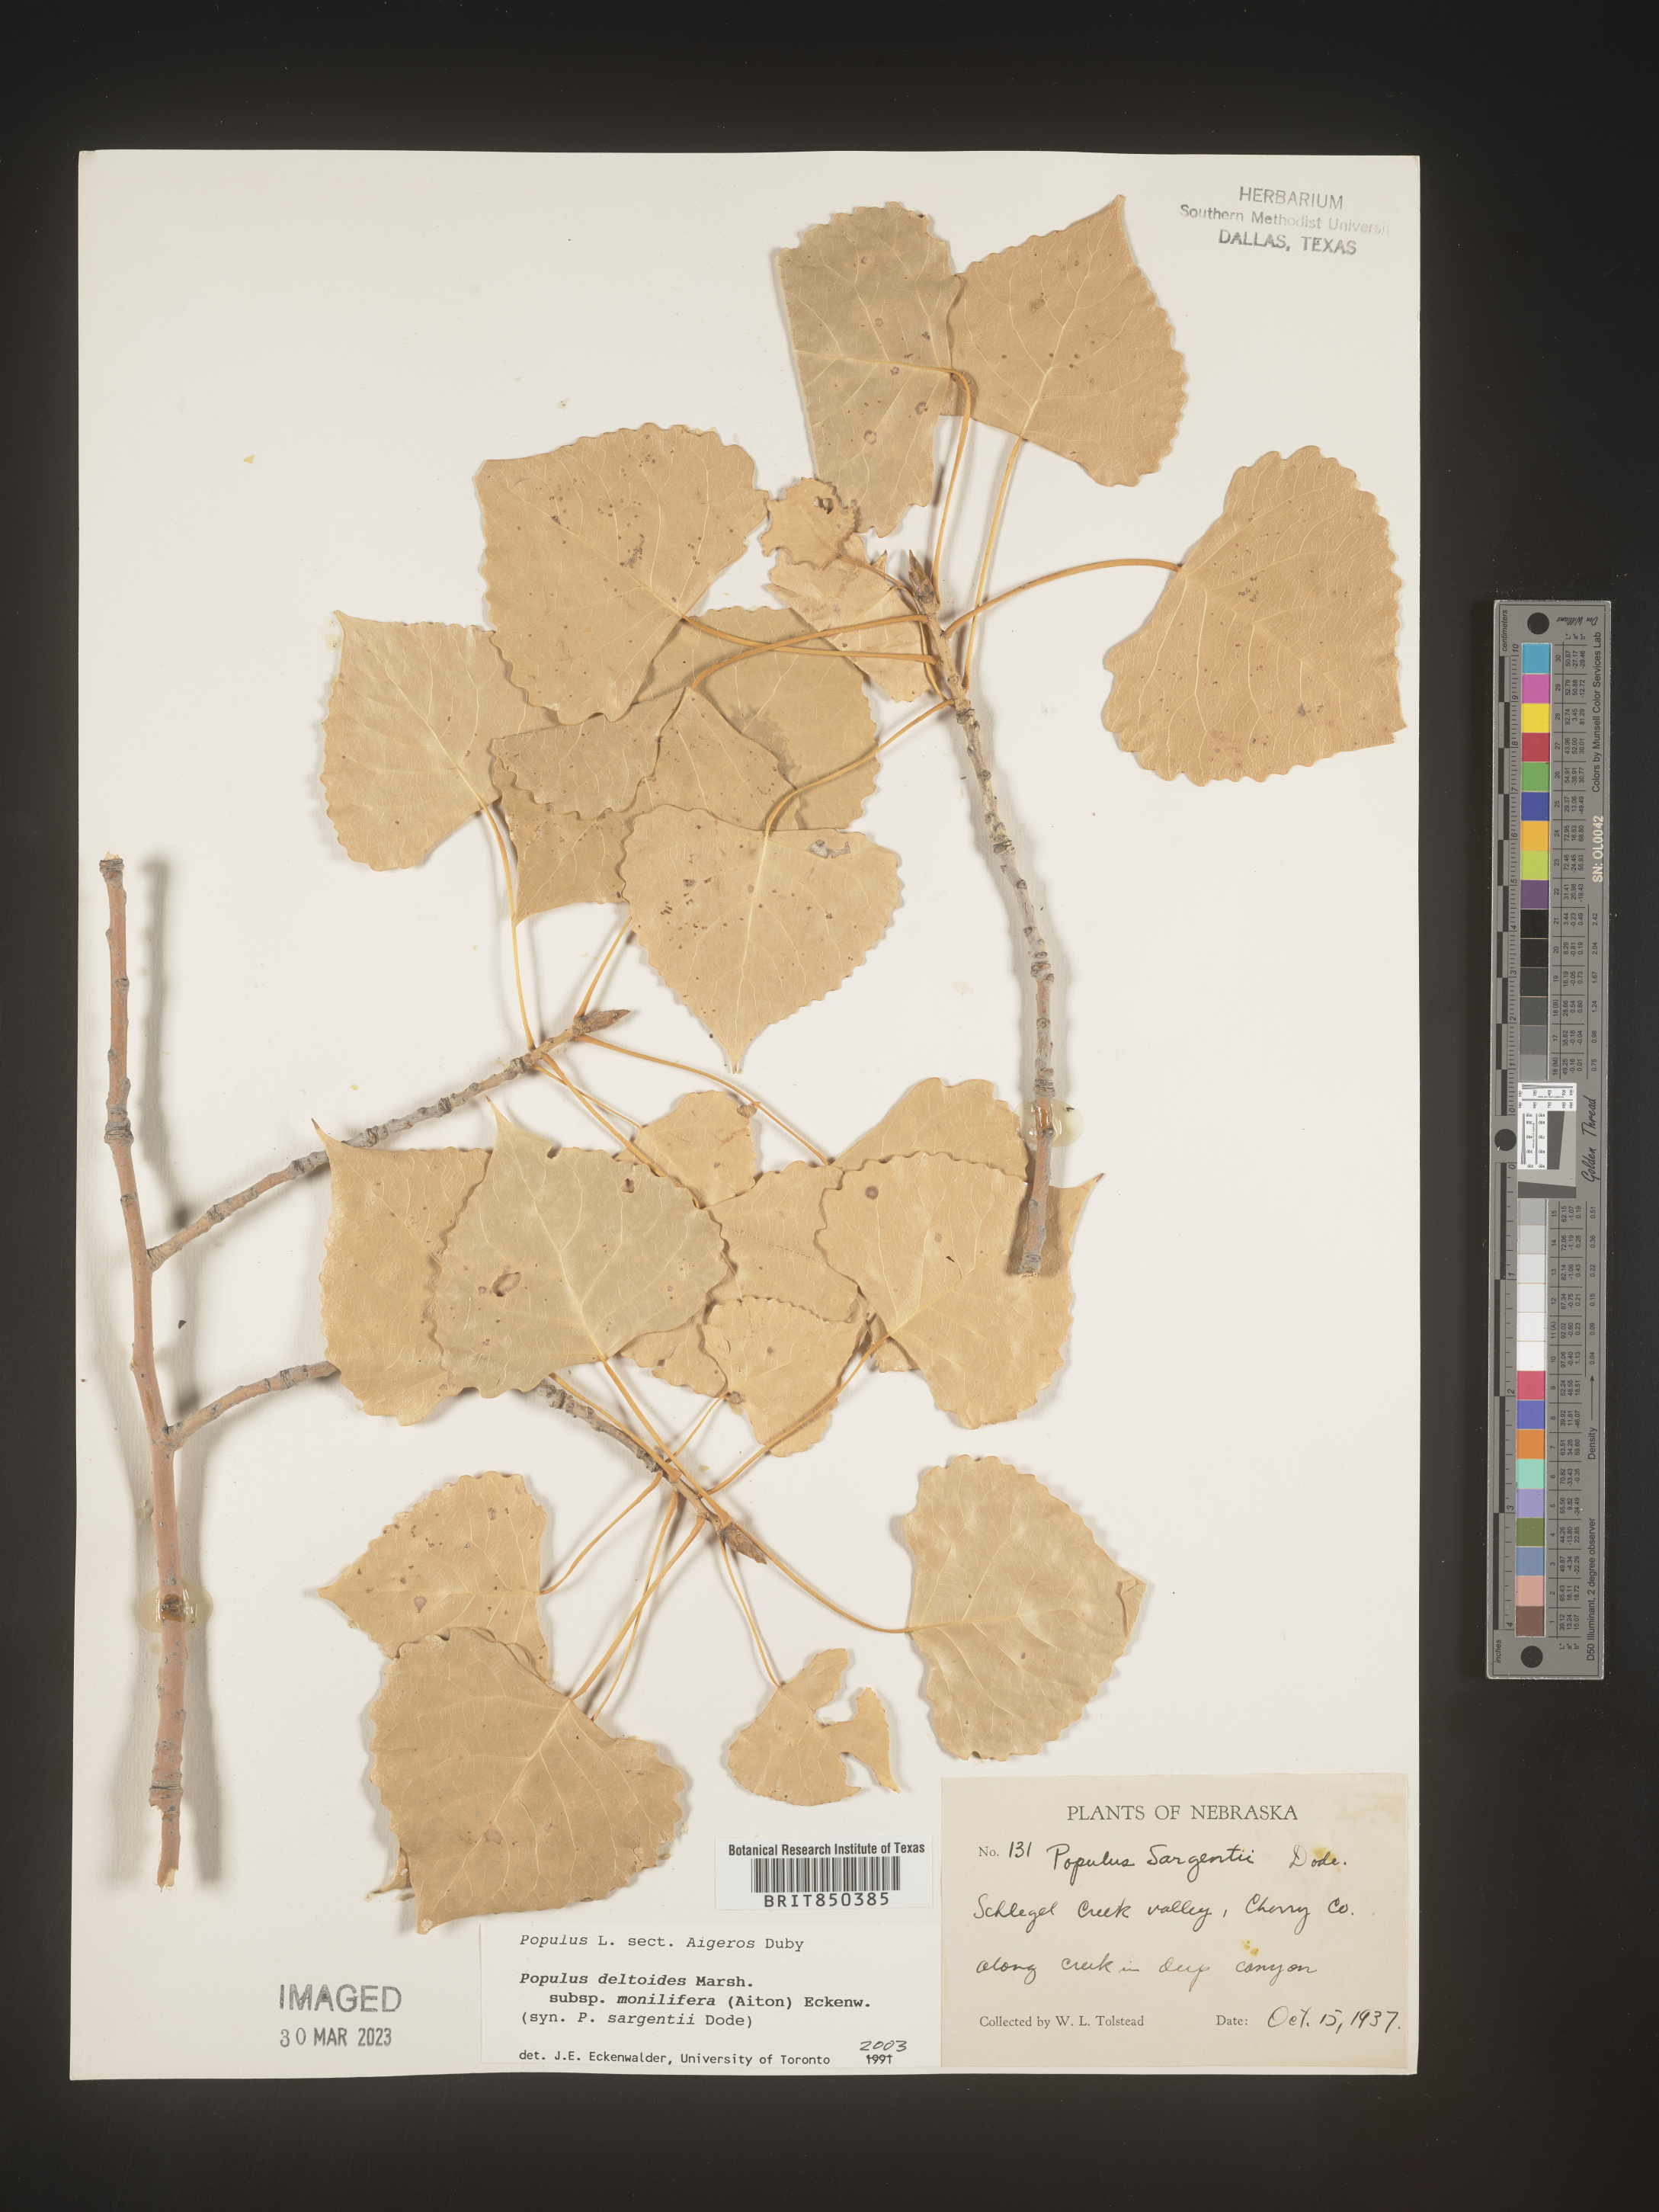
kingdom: Plantae
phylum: Tracheophyta
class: Magnoliopsida
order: Malpighiales
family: Salicaceae
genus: Populus
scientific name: Populus deltoides
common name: Eastern cottonwood
